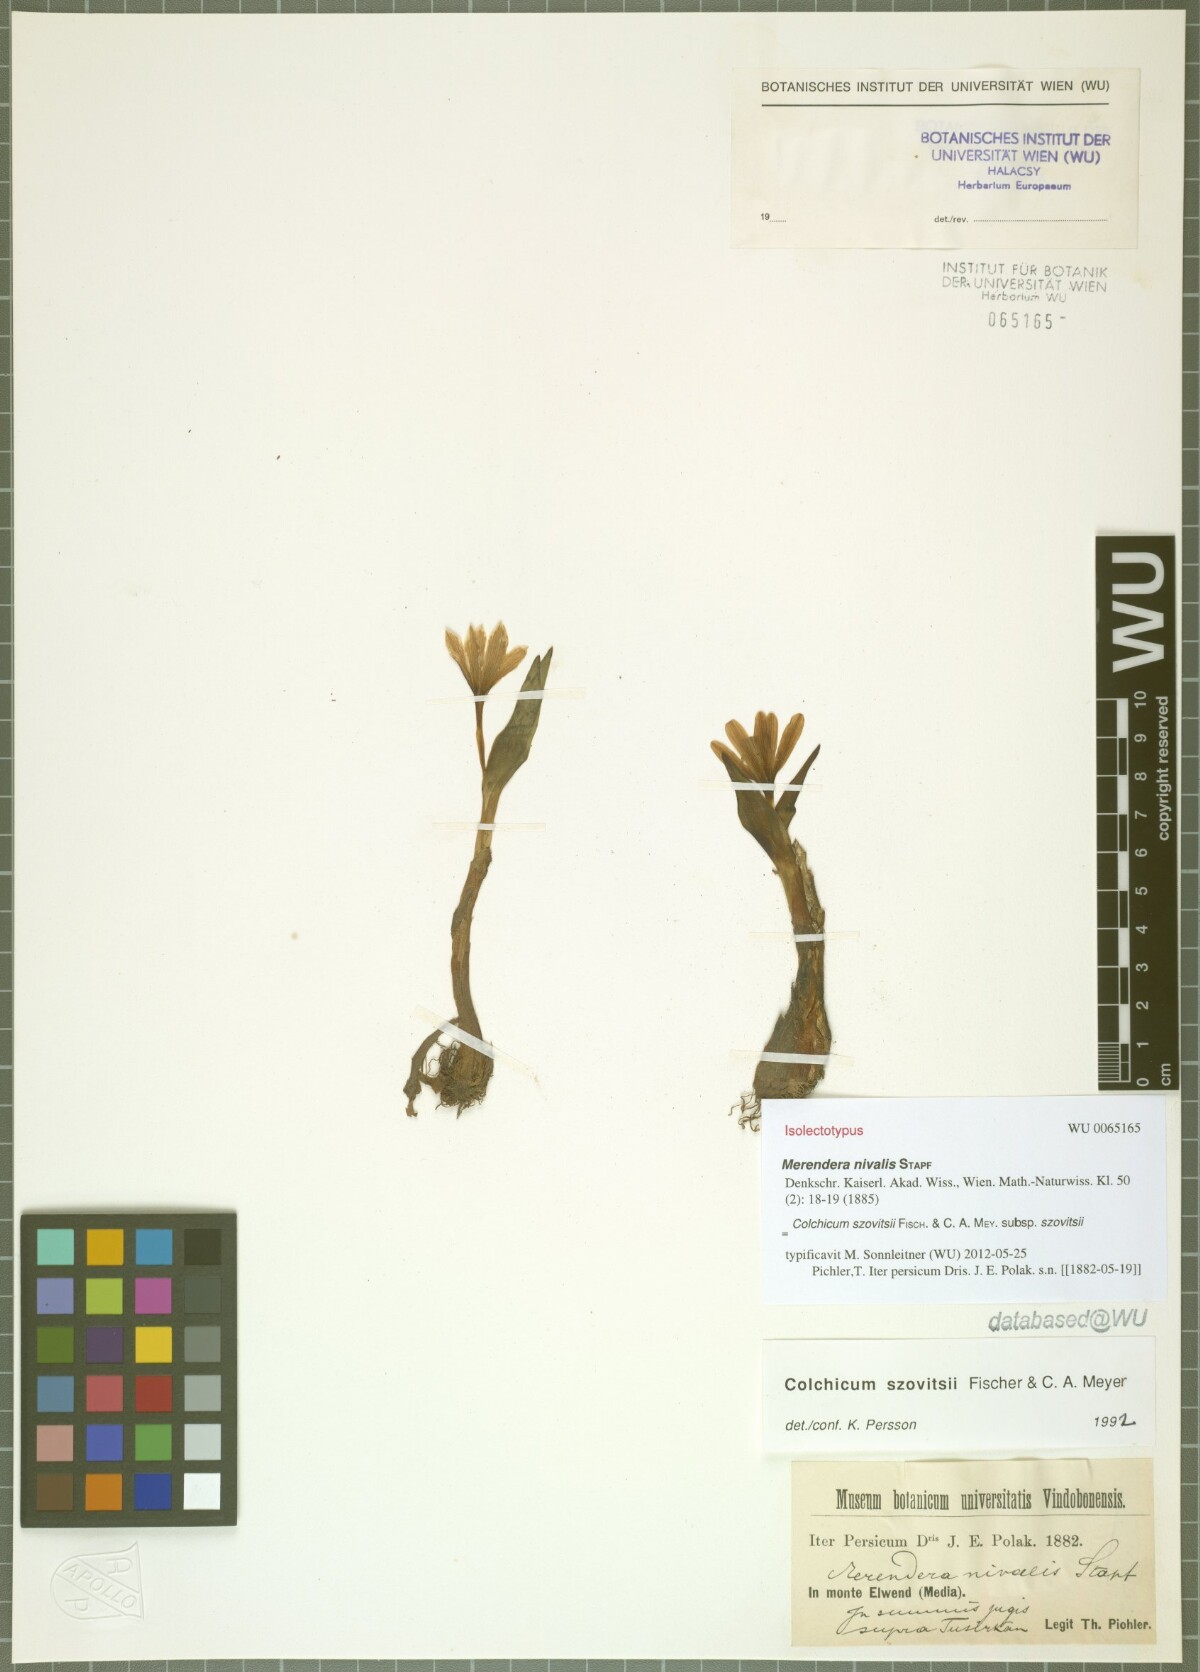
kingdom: Plantae
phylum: Tracheophyta
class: Liliopsida
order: Liliales
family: Colchicaceae
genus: Colchicum
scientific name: Colchicum szovitsii
